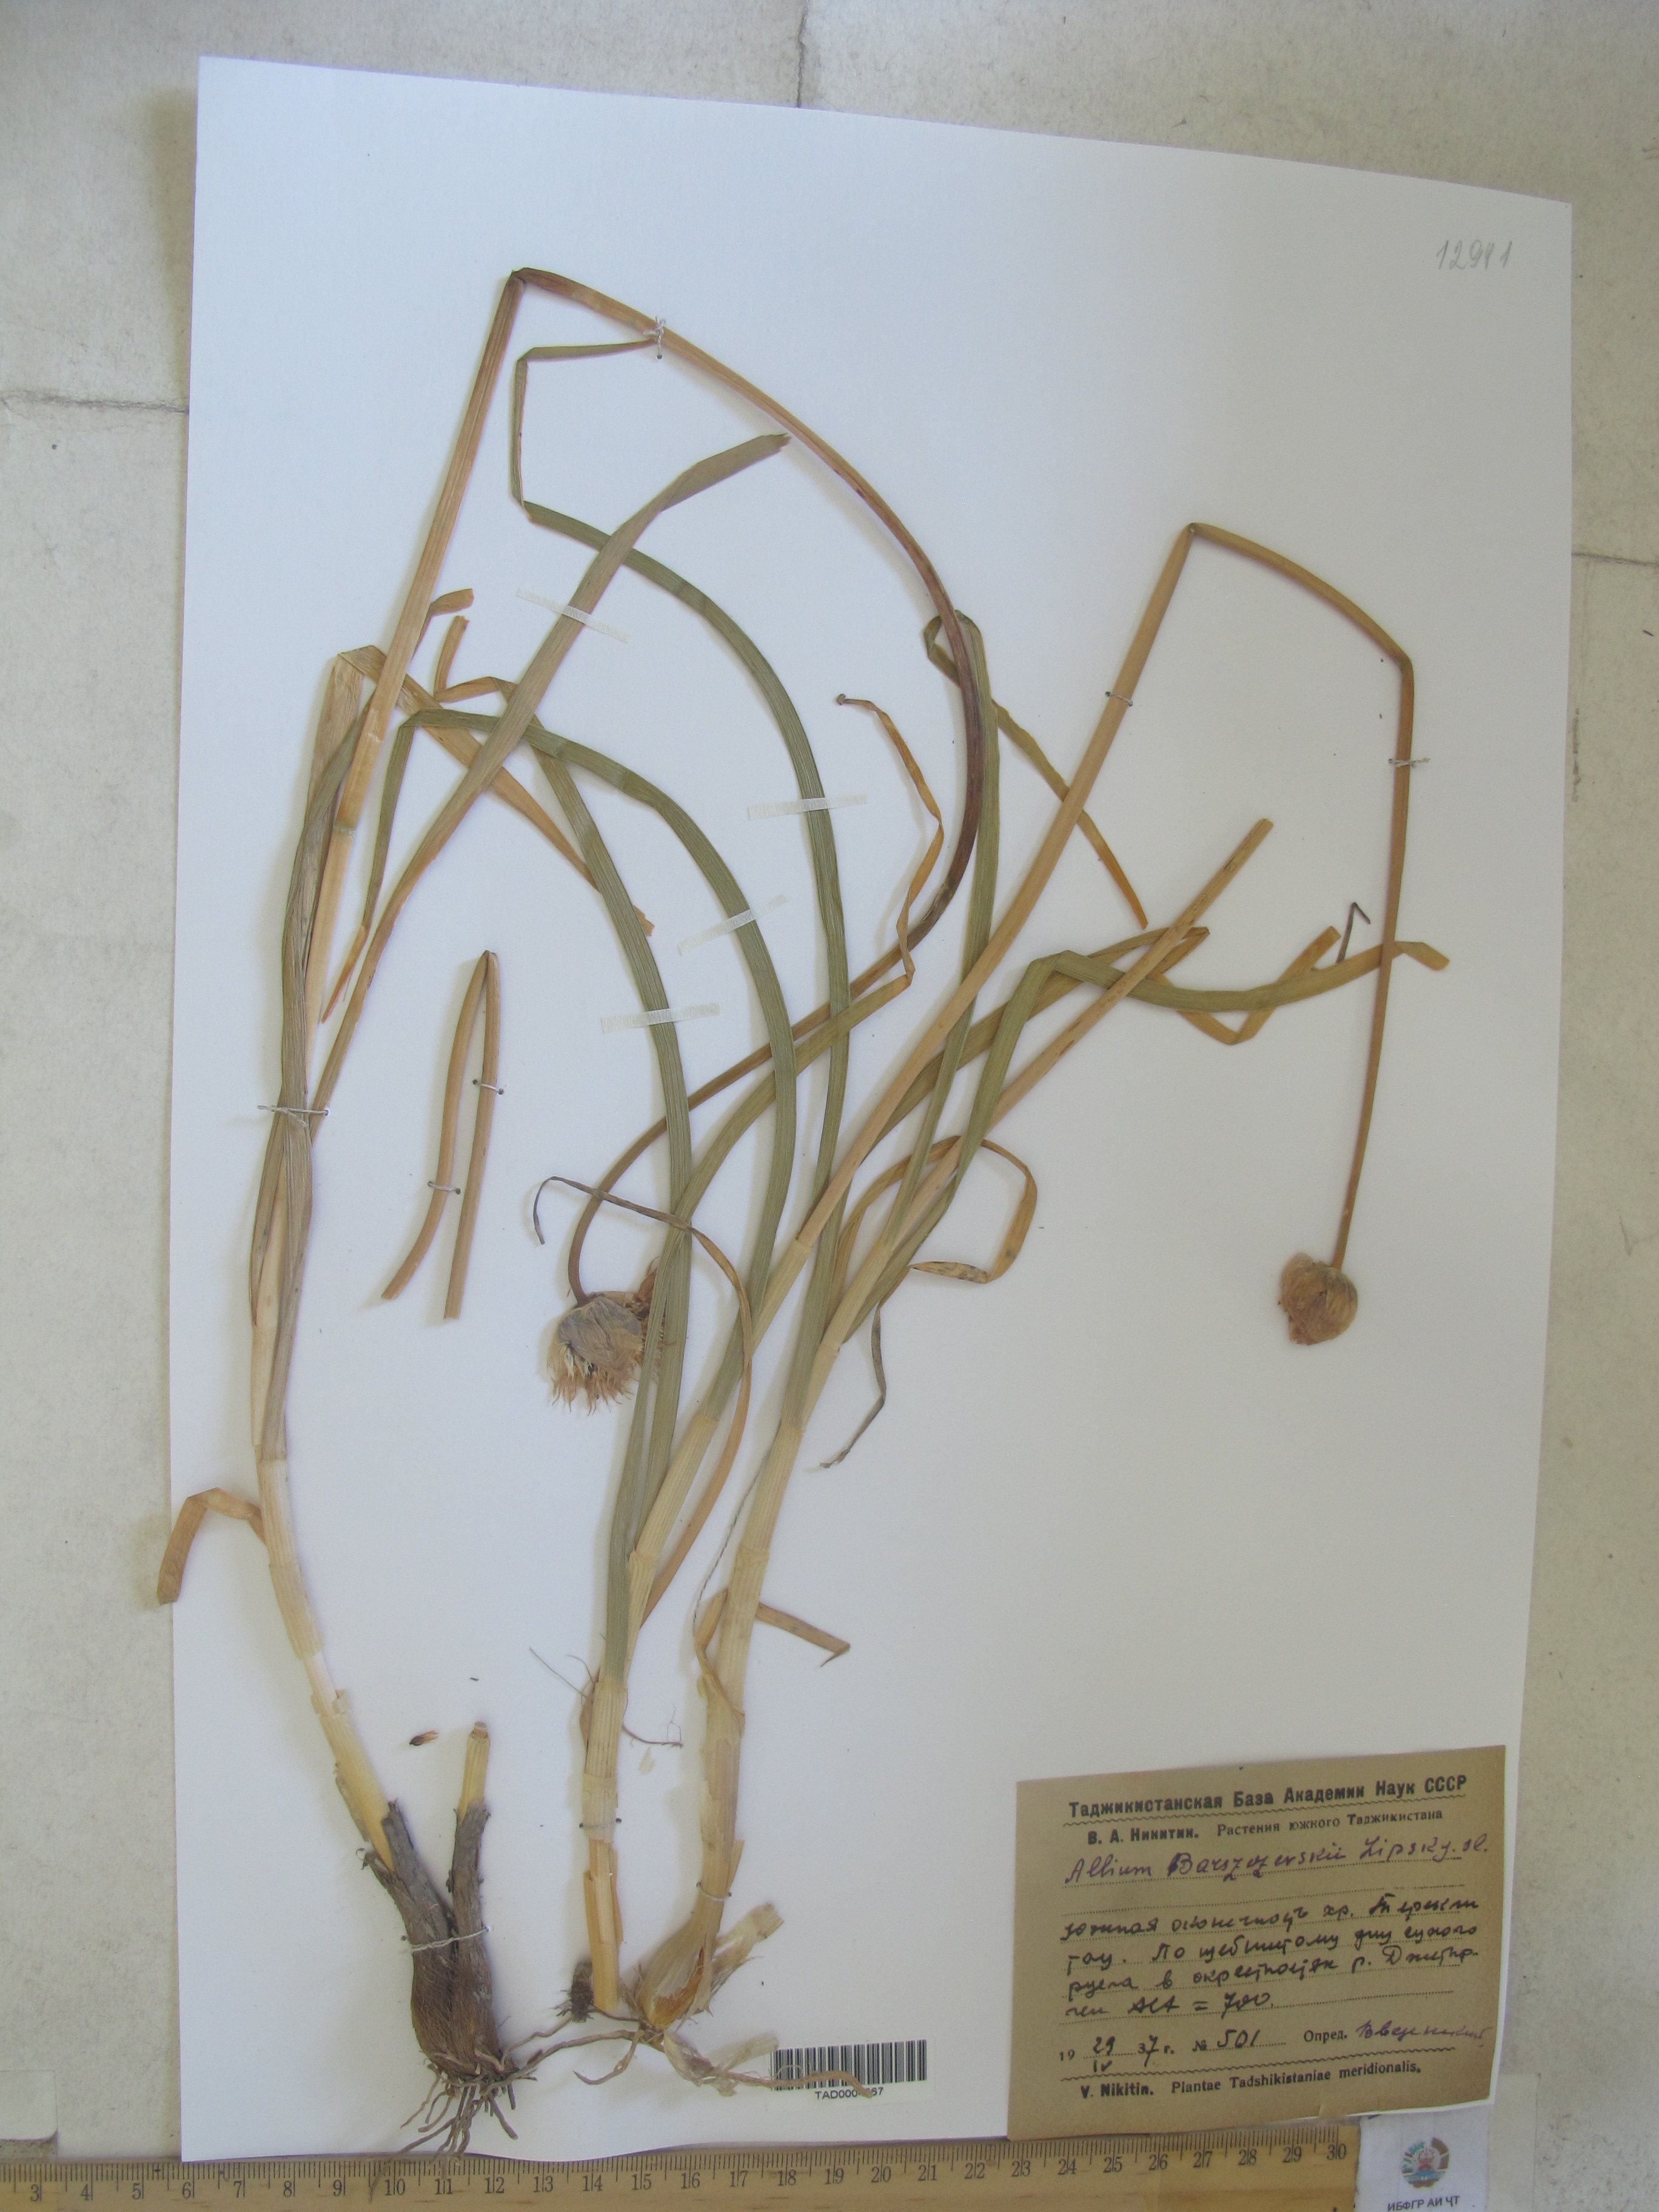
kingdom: Plantae
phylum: Tracheophyta
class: Liliopsida
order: Asparagales
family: Amaryllidaceae
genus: Allium
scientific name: Allium barsczewskii
